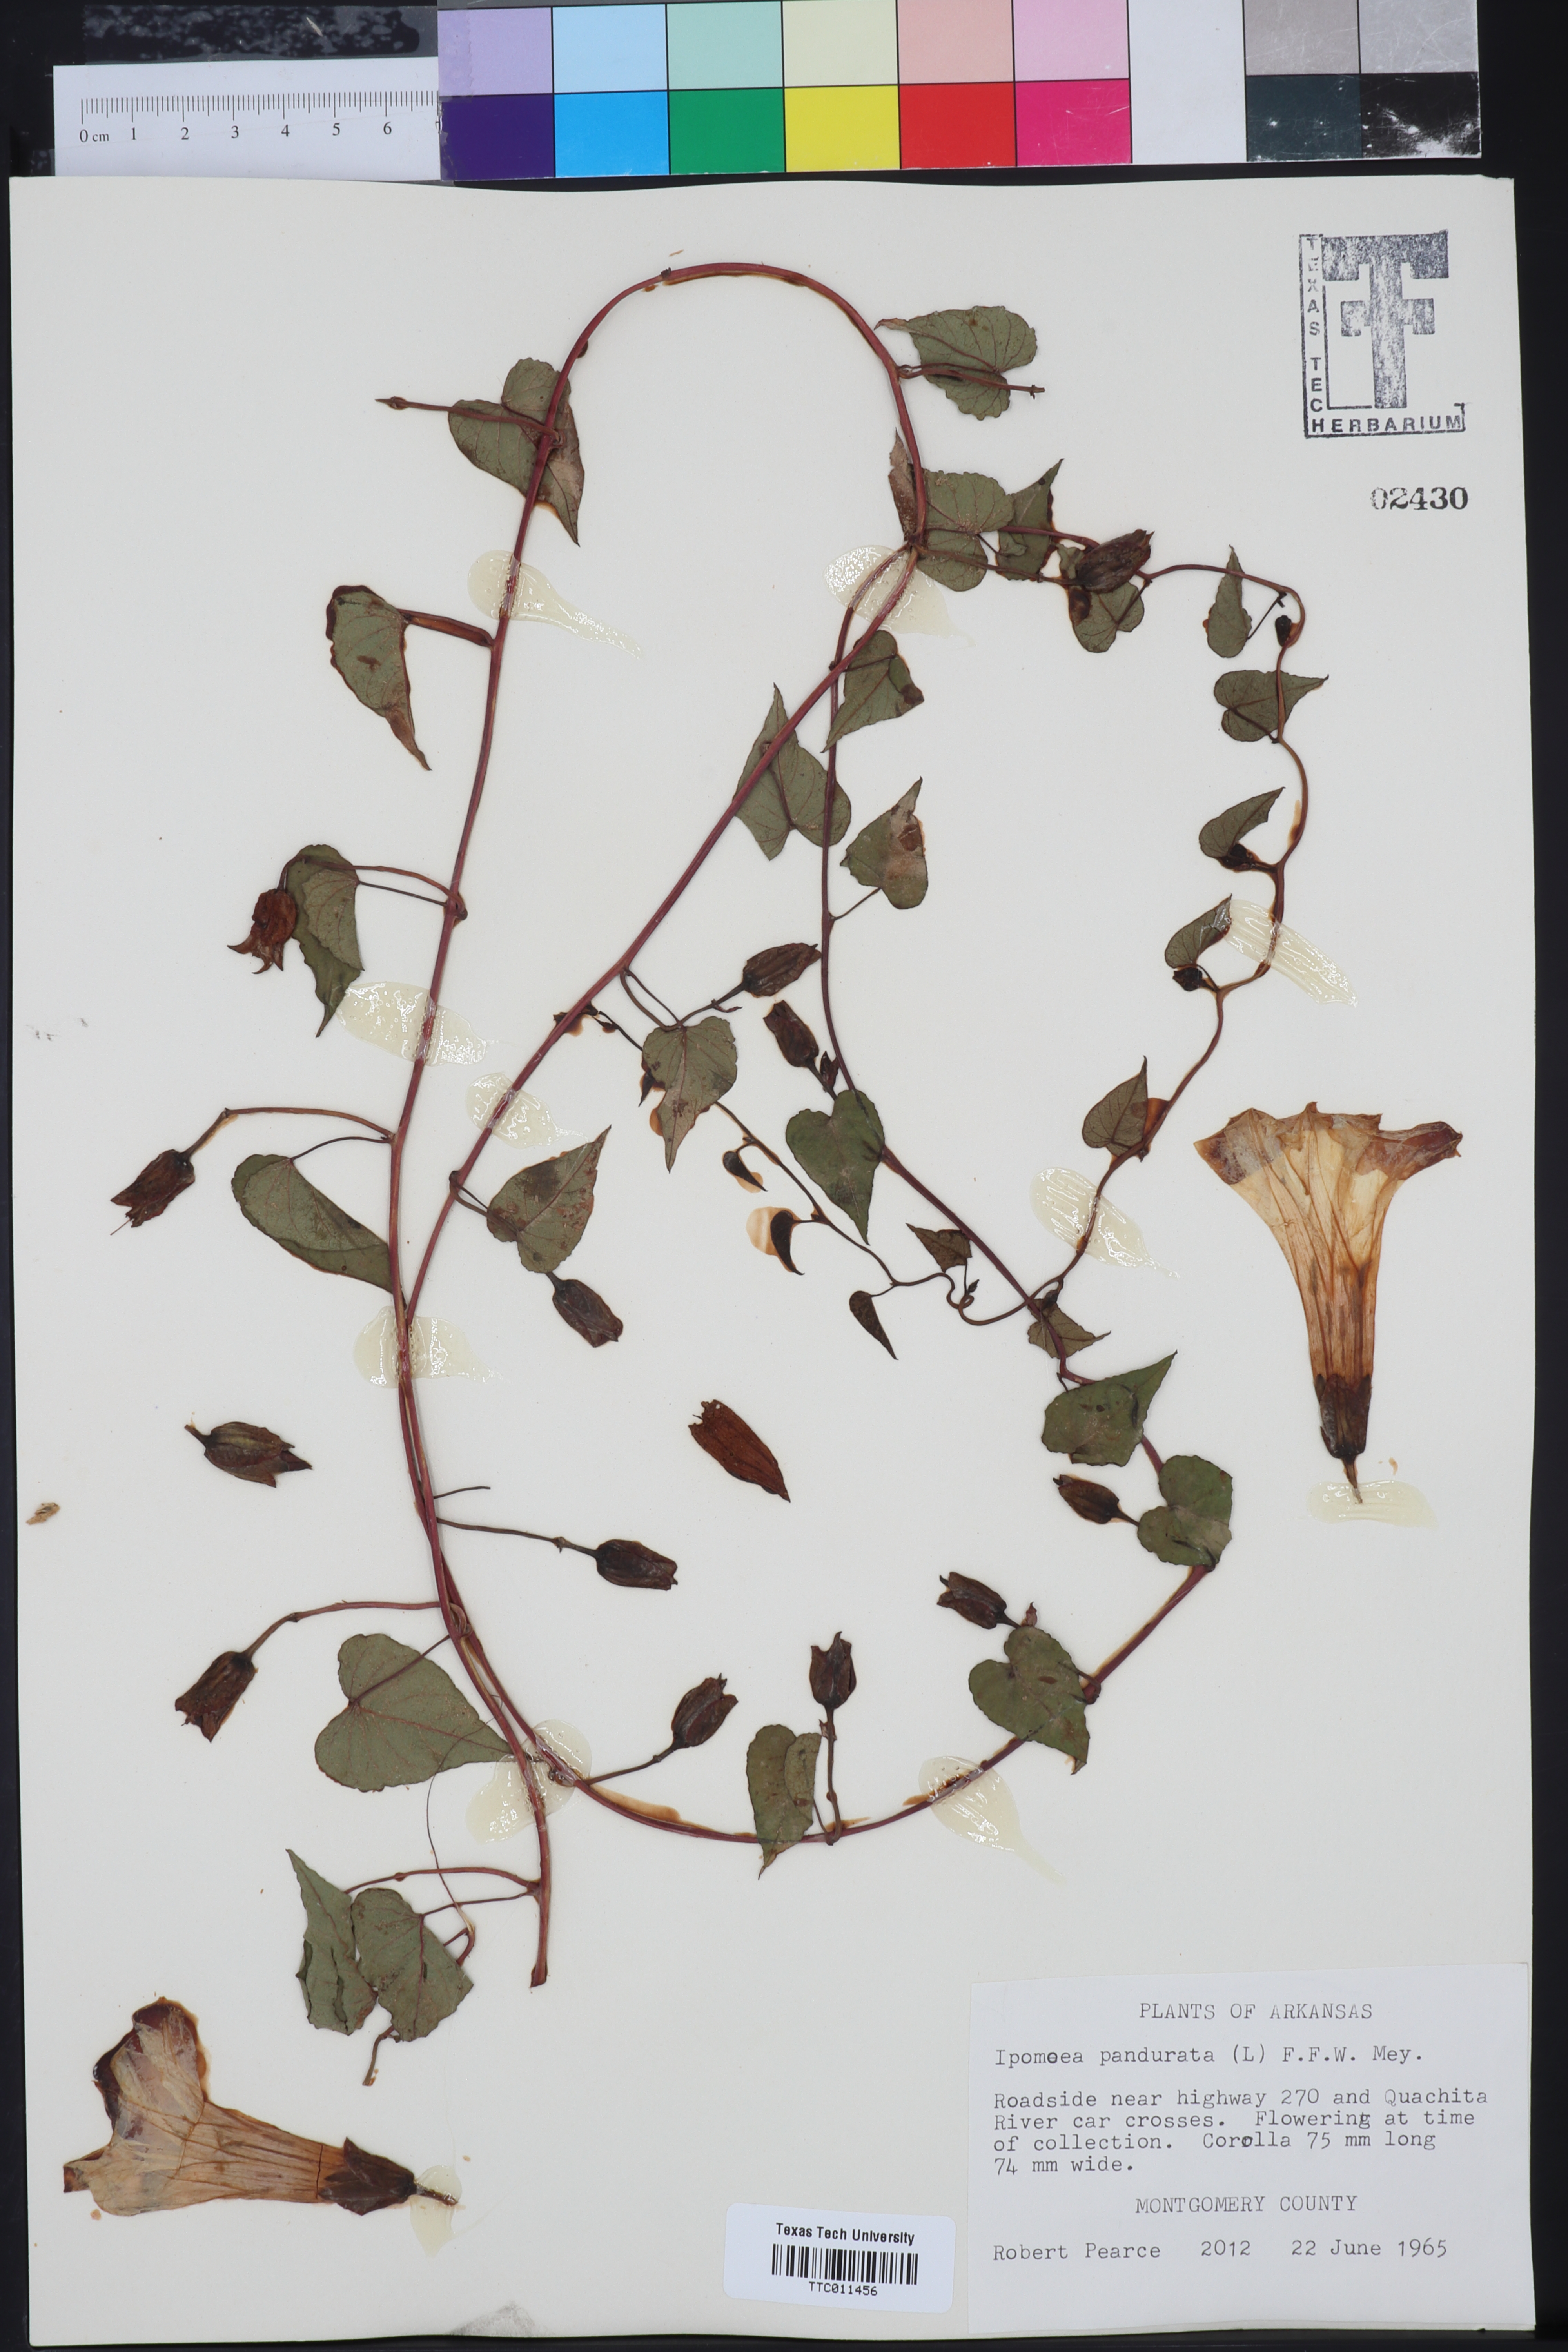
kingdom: Plantae
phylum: Tracheophyta
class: Magnoliopsida
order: Solanales
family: Convolvulaceae
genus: Ipomoea
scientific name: Ipomoea pandurata
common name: Man-of-the-earth
